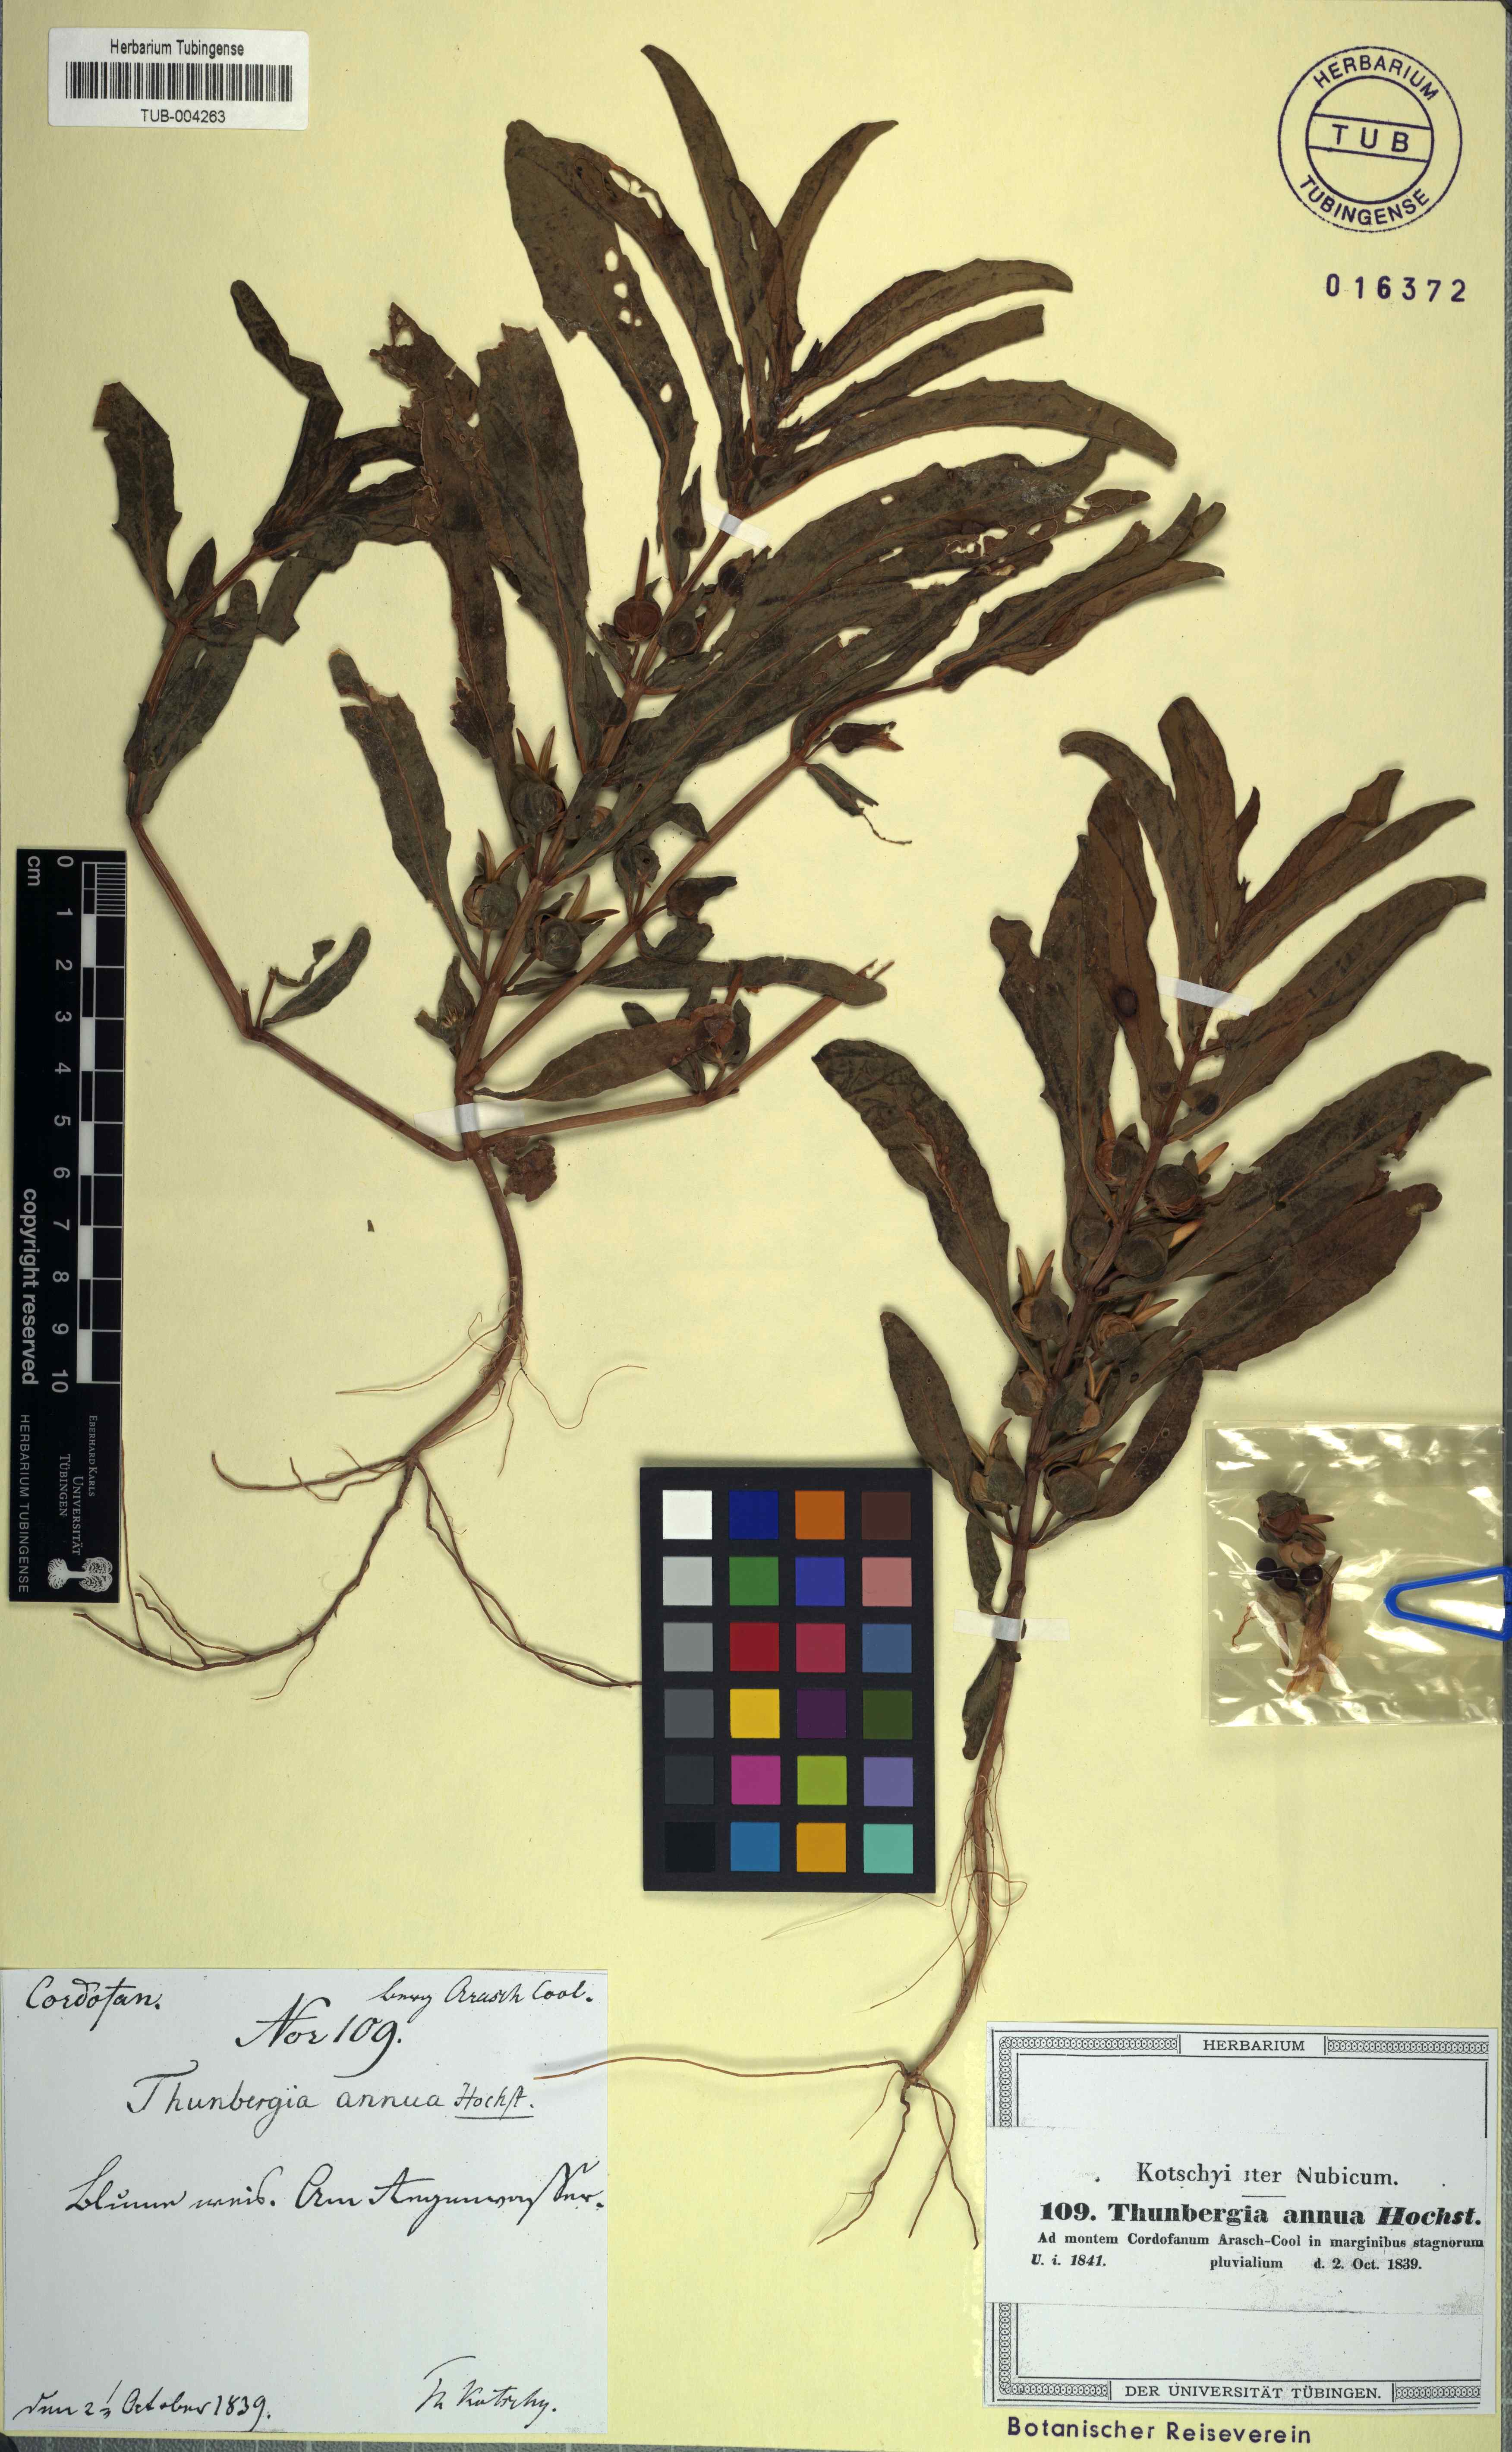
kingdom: Plantae
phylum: Tracheophyta
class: Magnoliopsida
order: Lamiales
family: Acanthaceae
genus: Thunbergia
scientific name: Thunbergia annua
